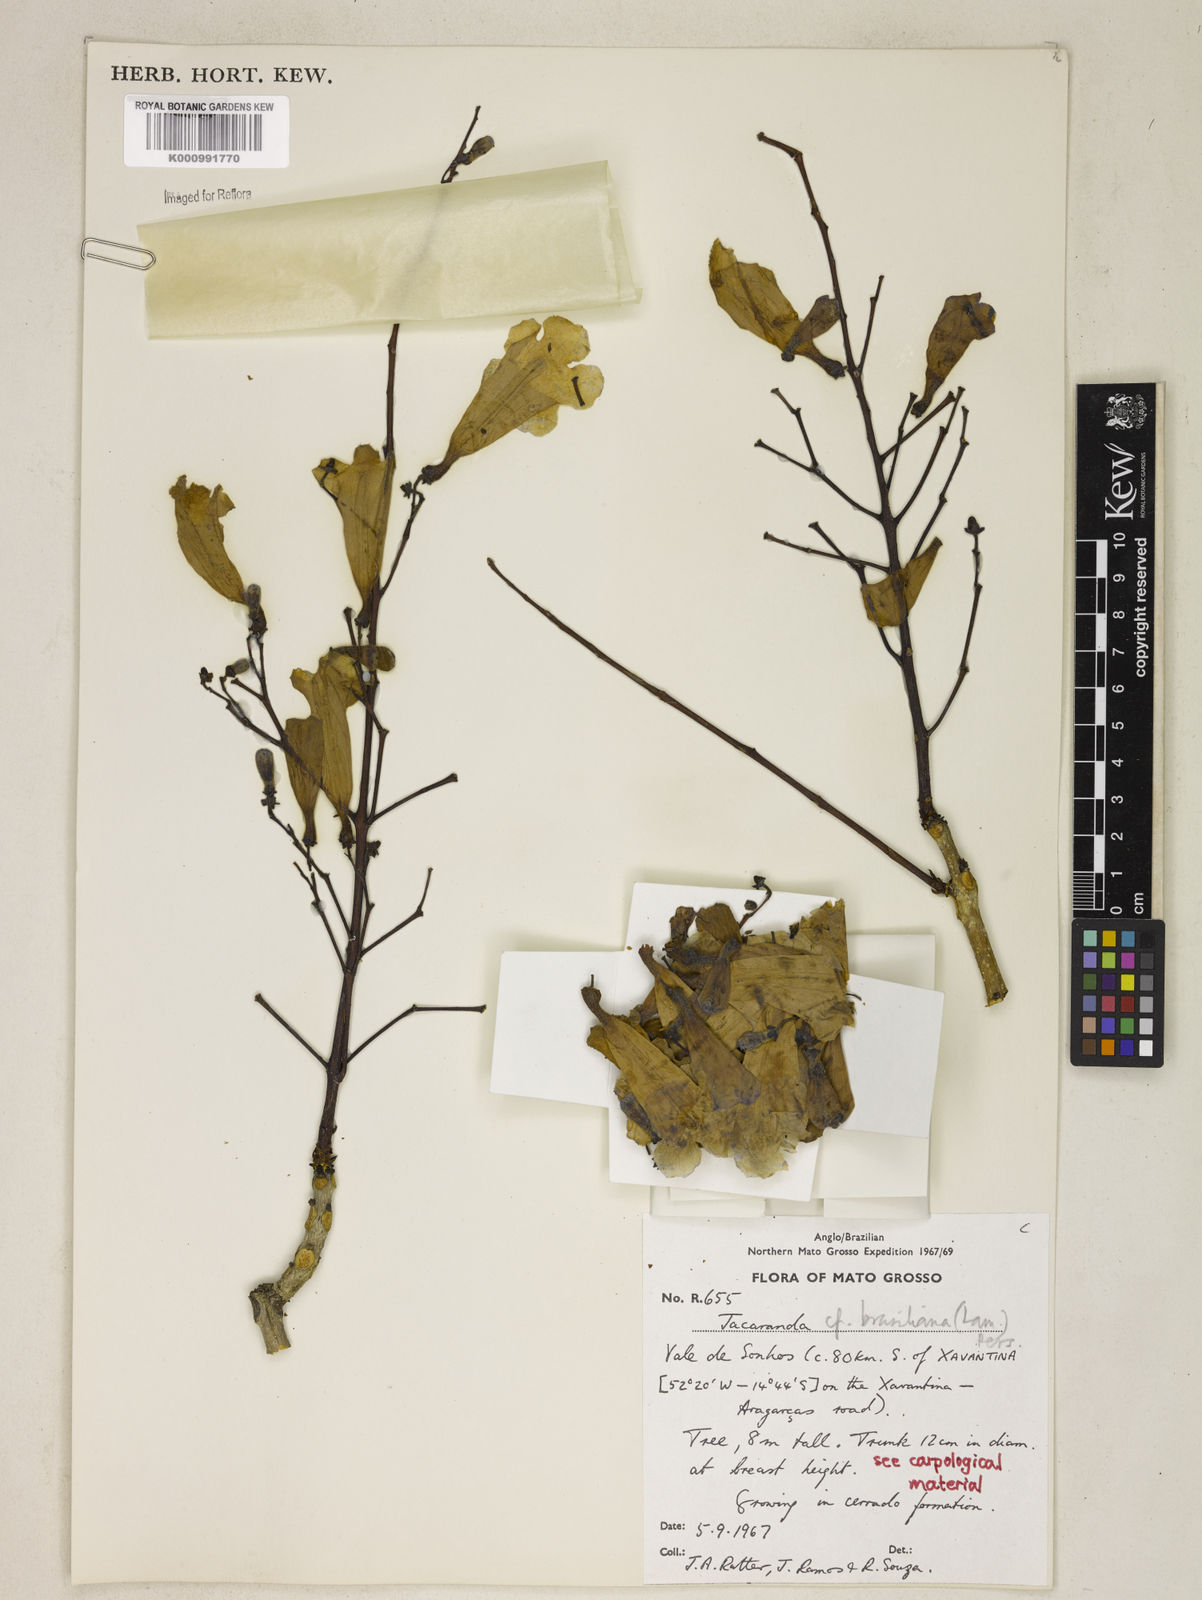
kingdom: Plantae
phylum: Tracheophyta
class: Magnoliopsida
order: Lamiales
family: Bignoniaceae
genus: Jacaranda
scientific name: Jacaranda brasiliana
